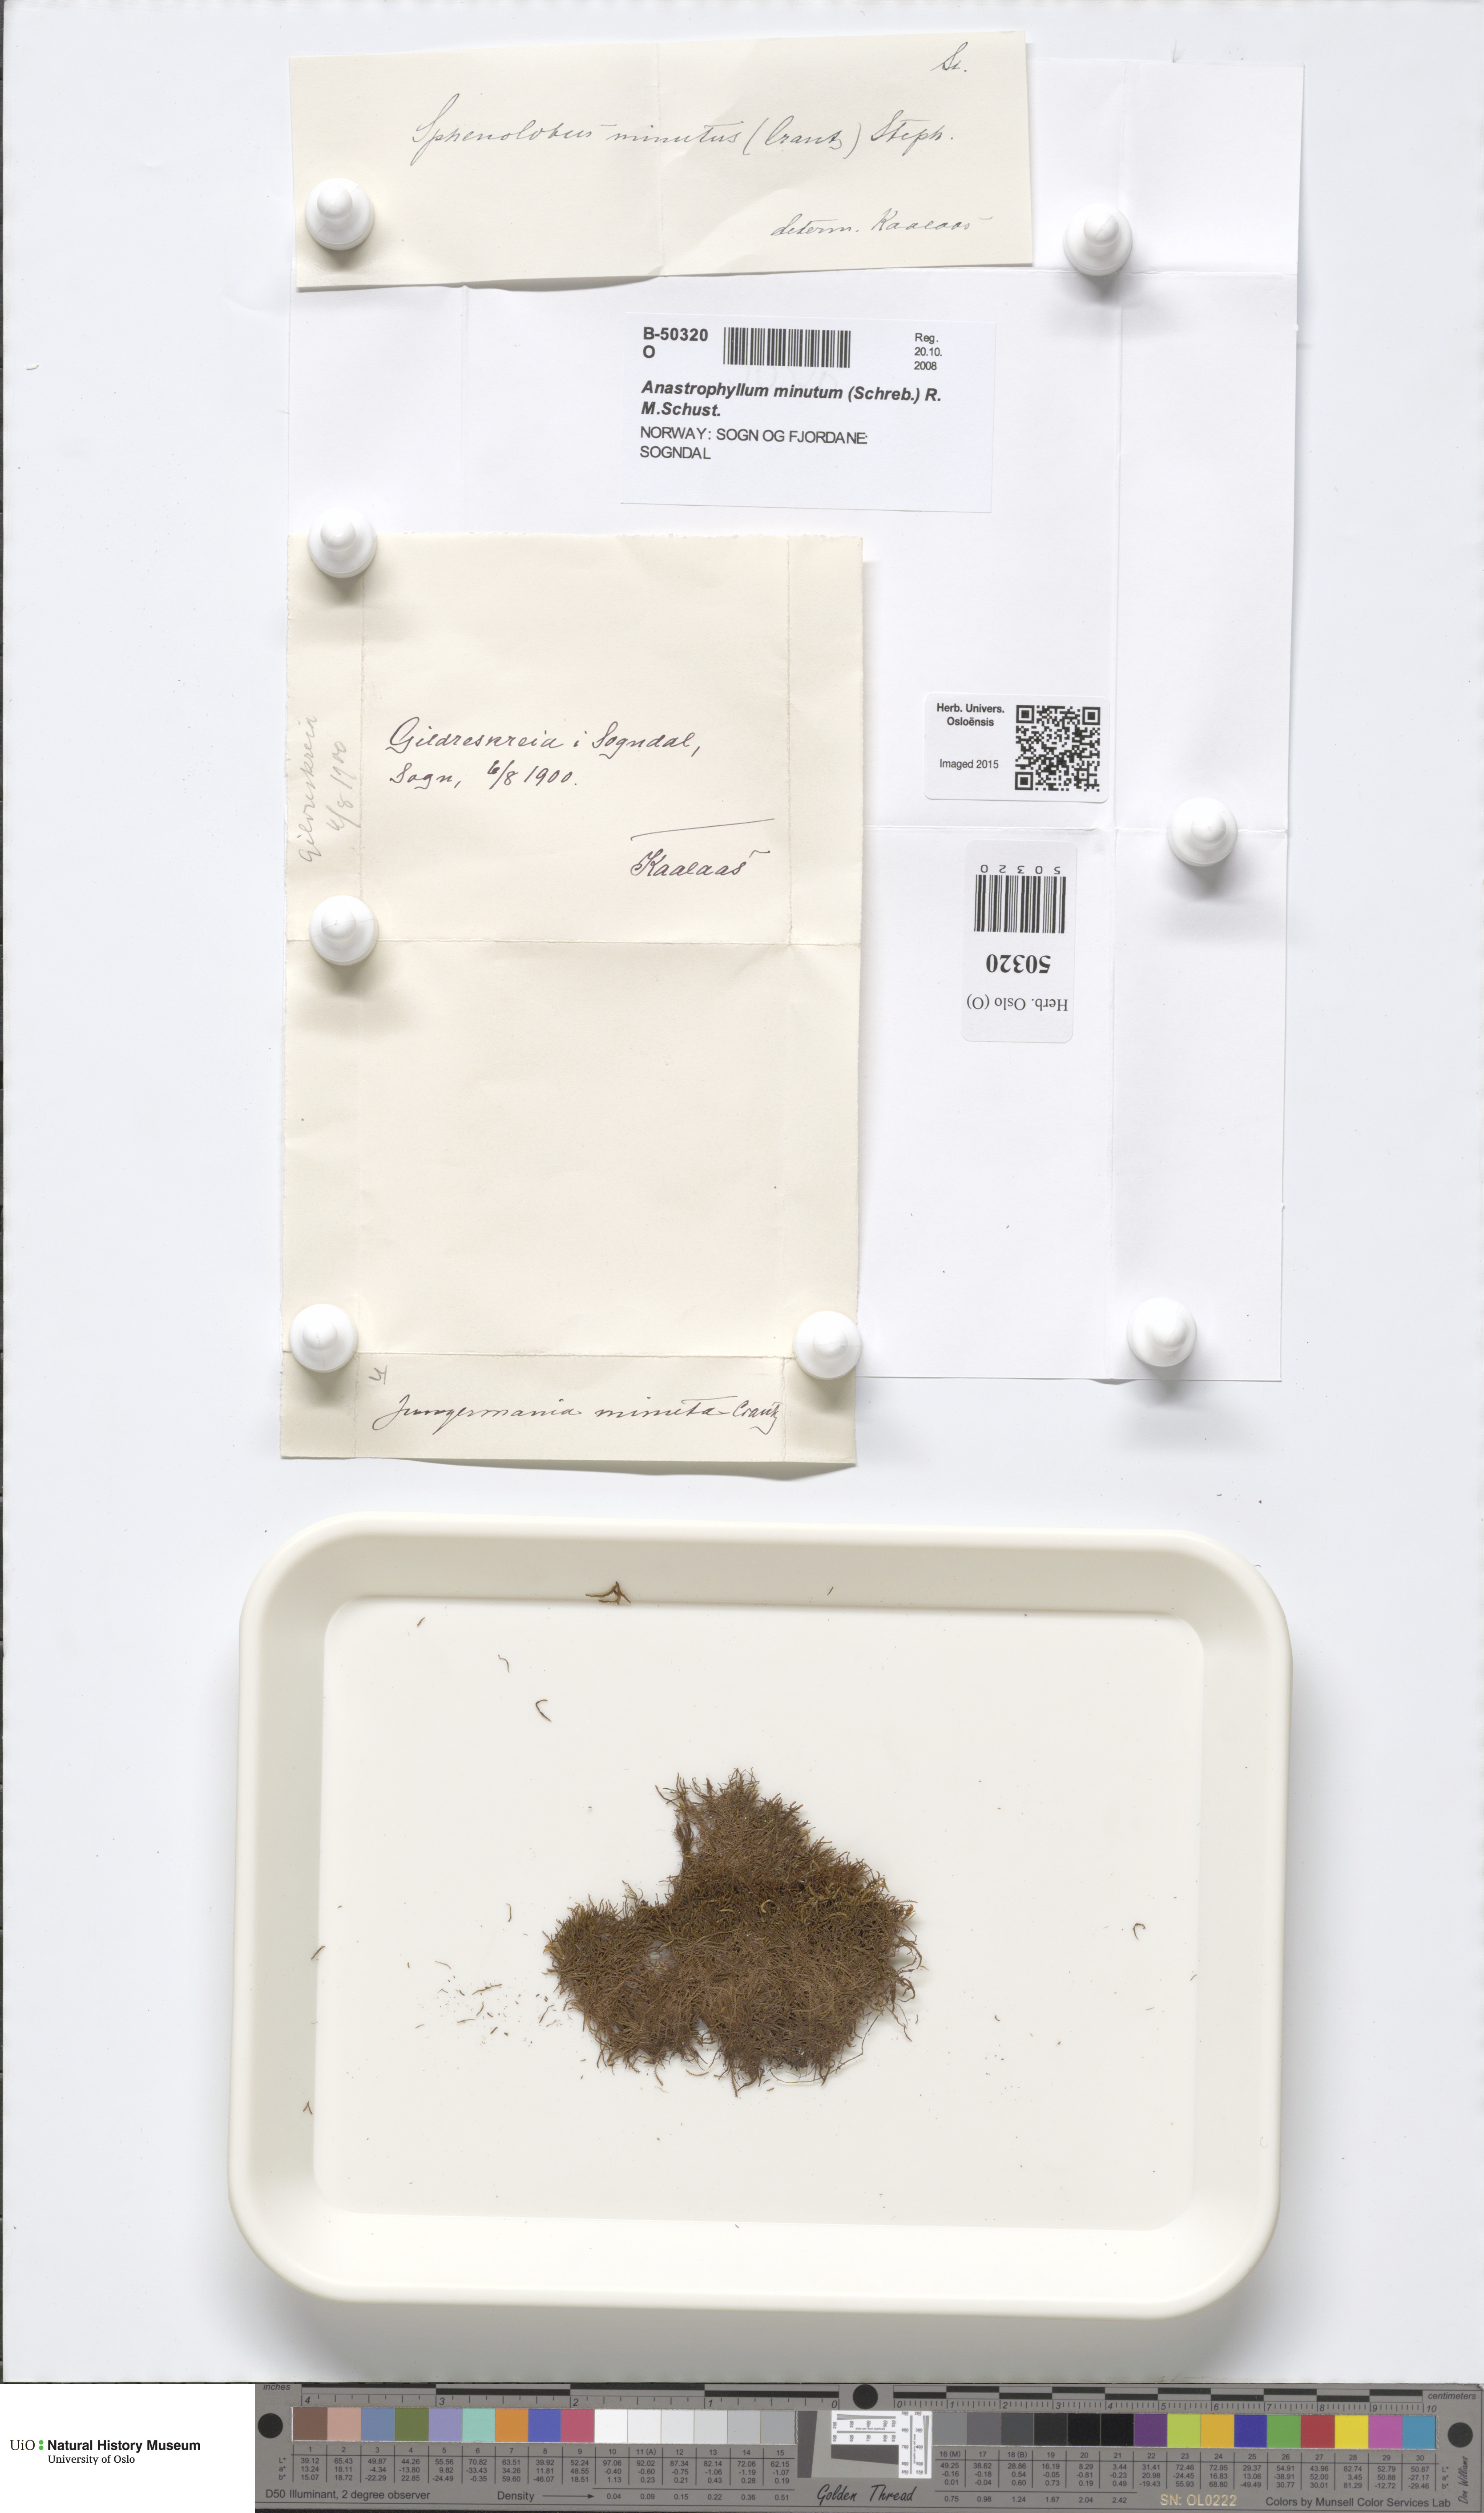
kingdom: Plantae
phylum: Marchantiophyta
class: Jungermanniopsida
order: Jungermanniales
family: Anastrophyllaceae
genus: Sphenolobus
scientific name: Sphenolobus minutus
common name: Comb notchwort
